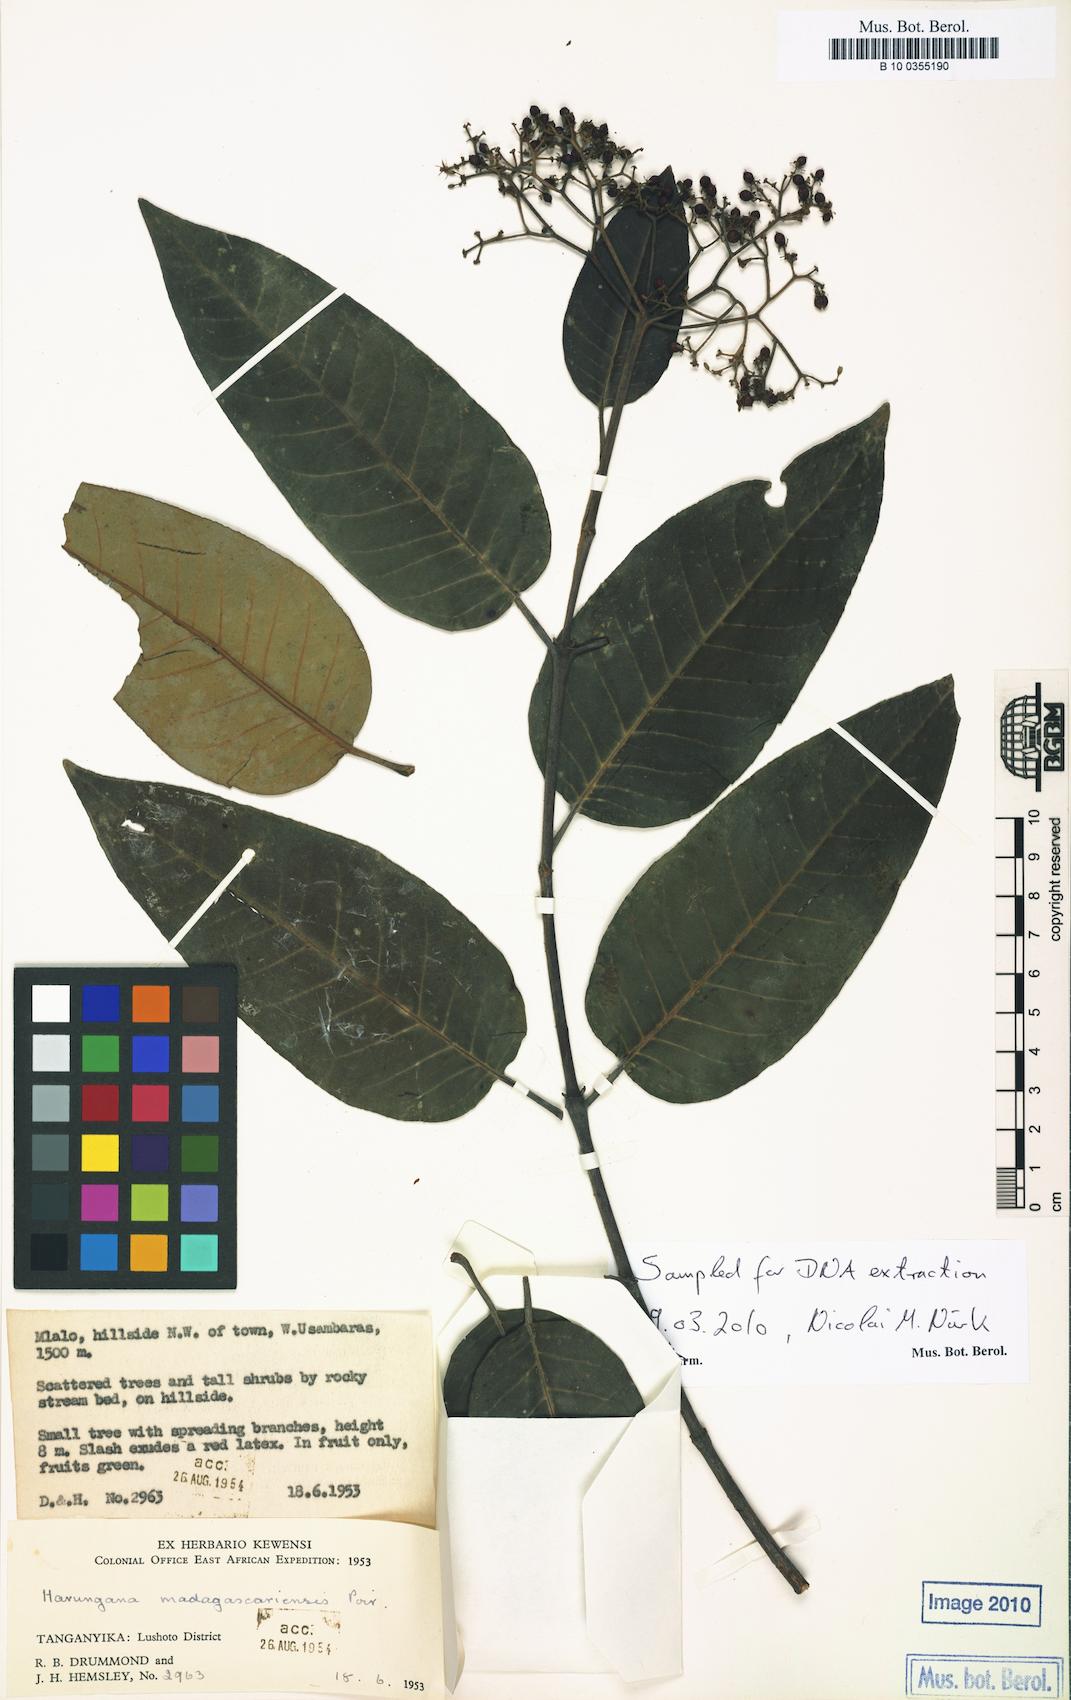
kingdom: Plantae
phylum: Tracheophyta
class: Magnoliopsida
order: Malpighiales
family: Hypericaceae
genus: Harungana
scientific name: Harungana madagascariensis
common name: Orange milktree
